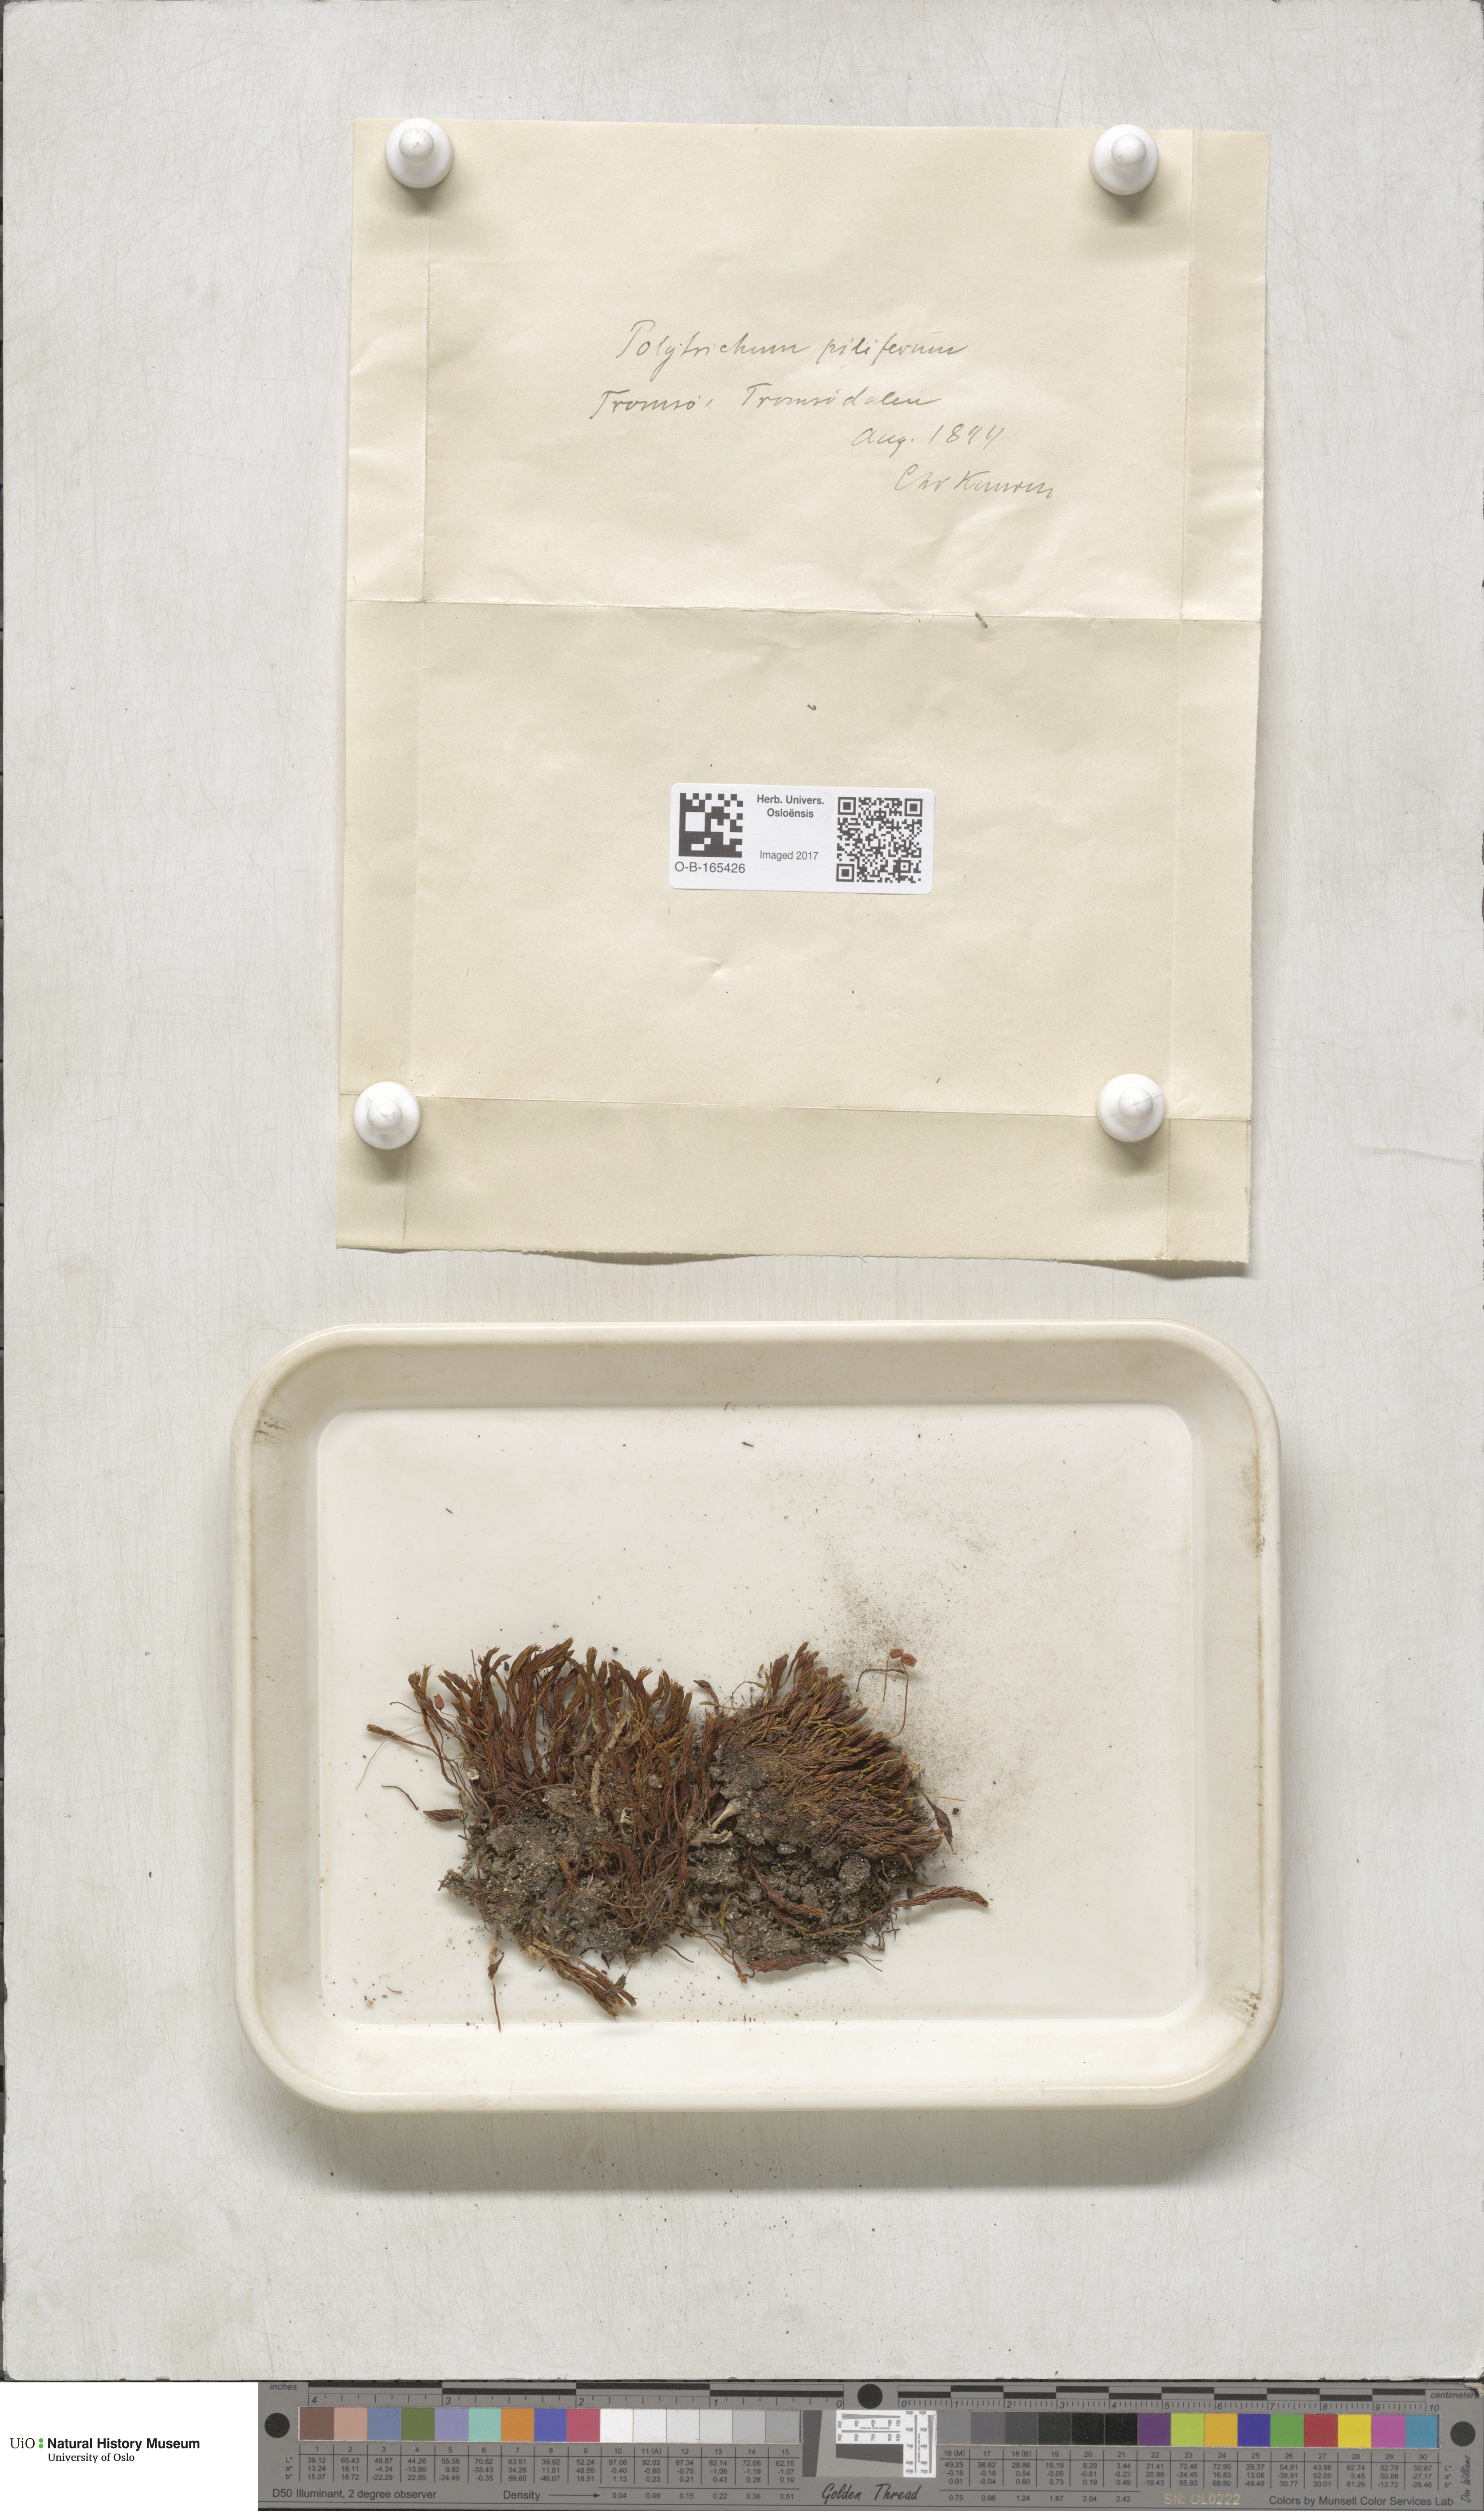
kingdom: Plantae
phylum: Bryophyta
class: Polytrichopsida
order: Polytrichales
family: Polytrichaceae
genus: Polytrichum
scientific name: Polytrichum piliferum
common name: Bristly haircap
